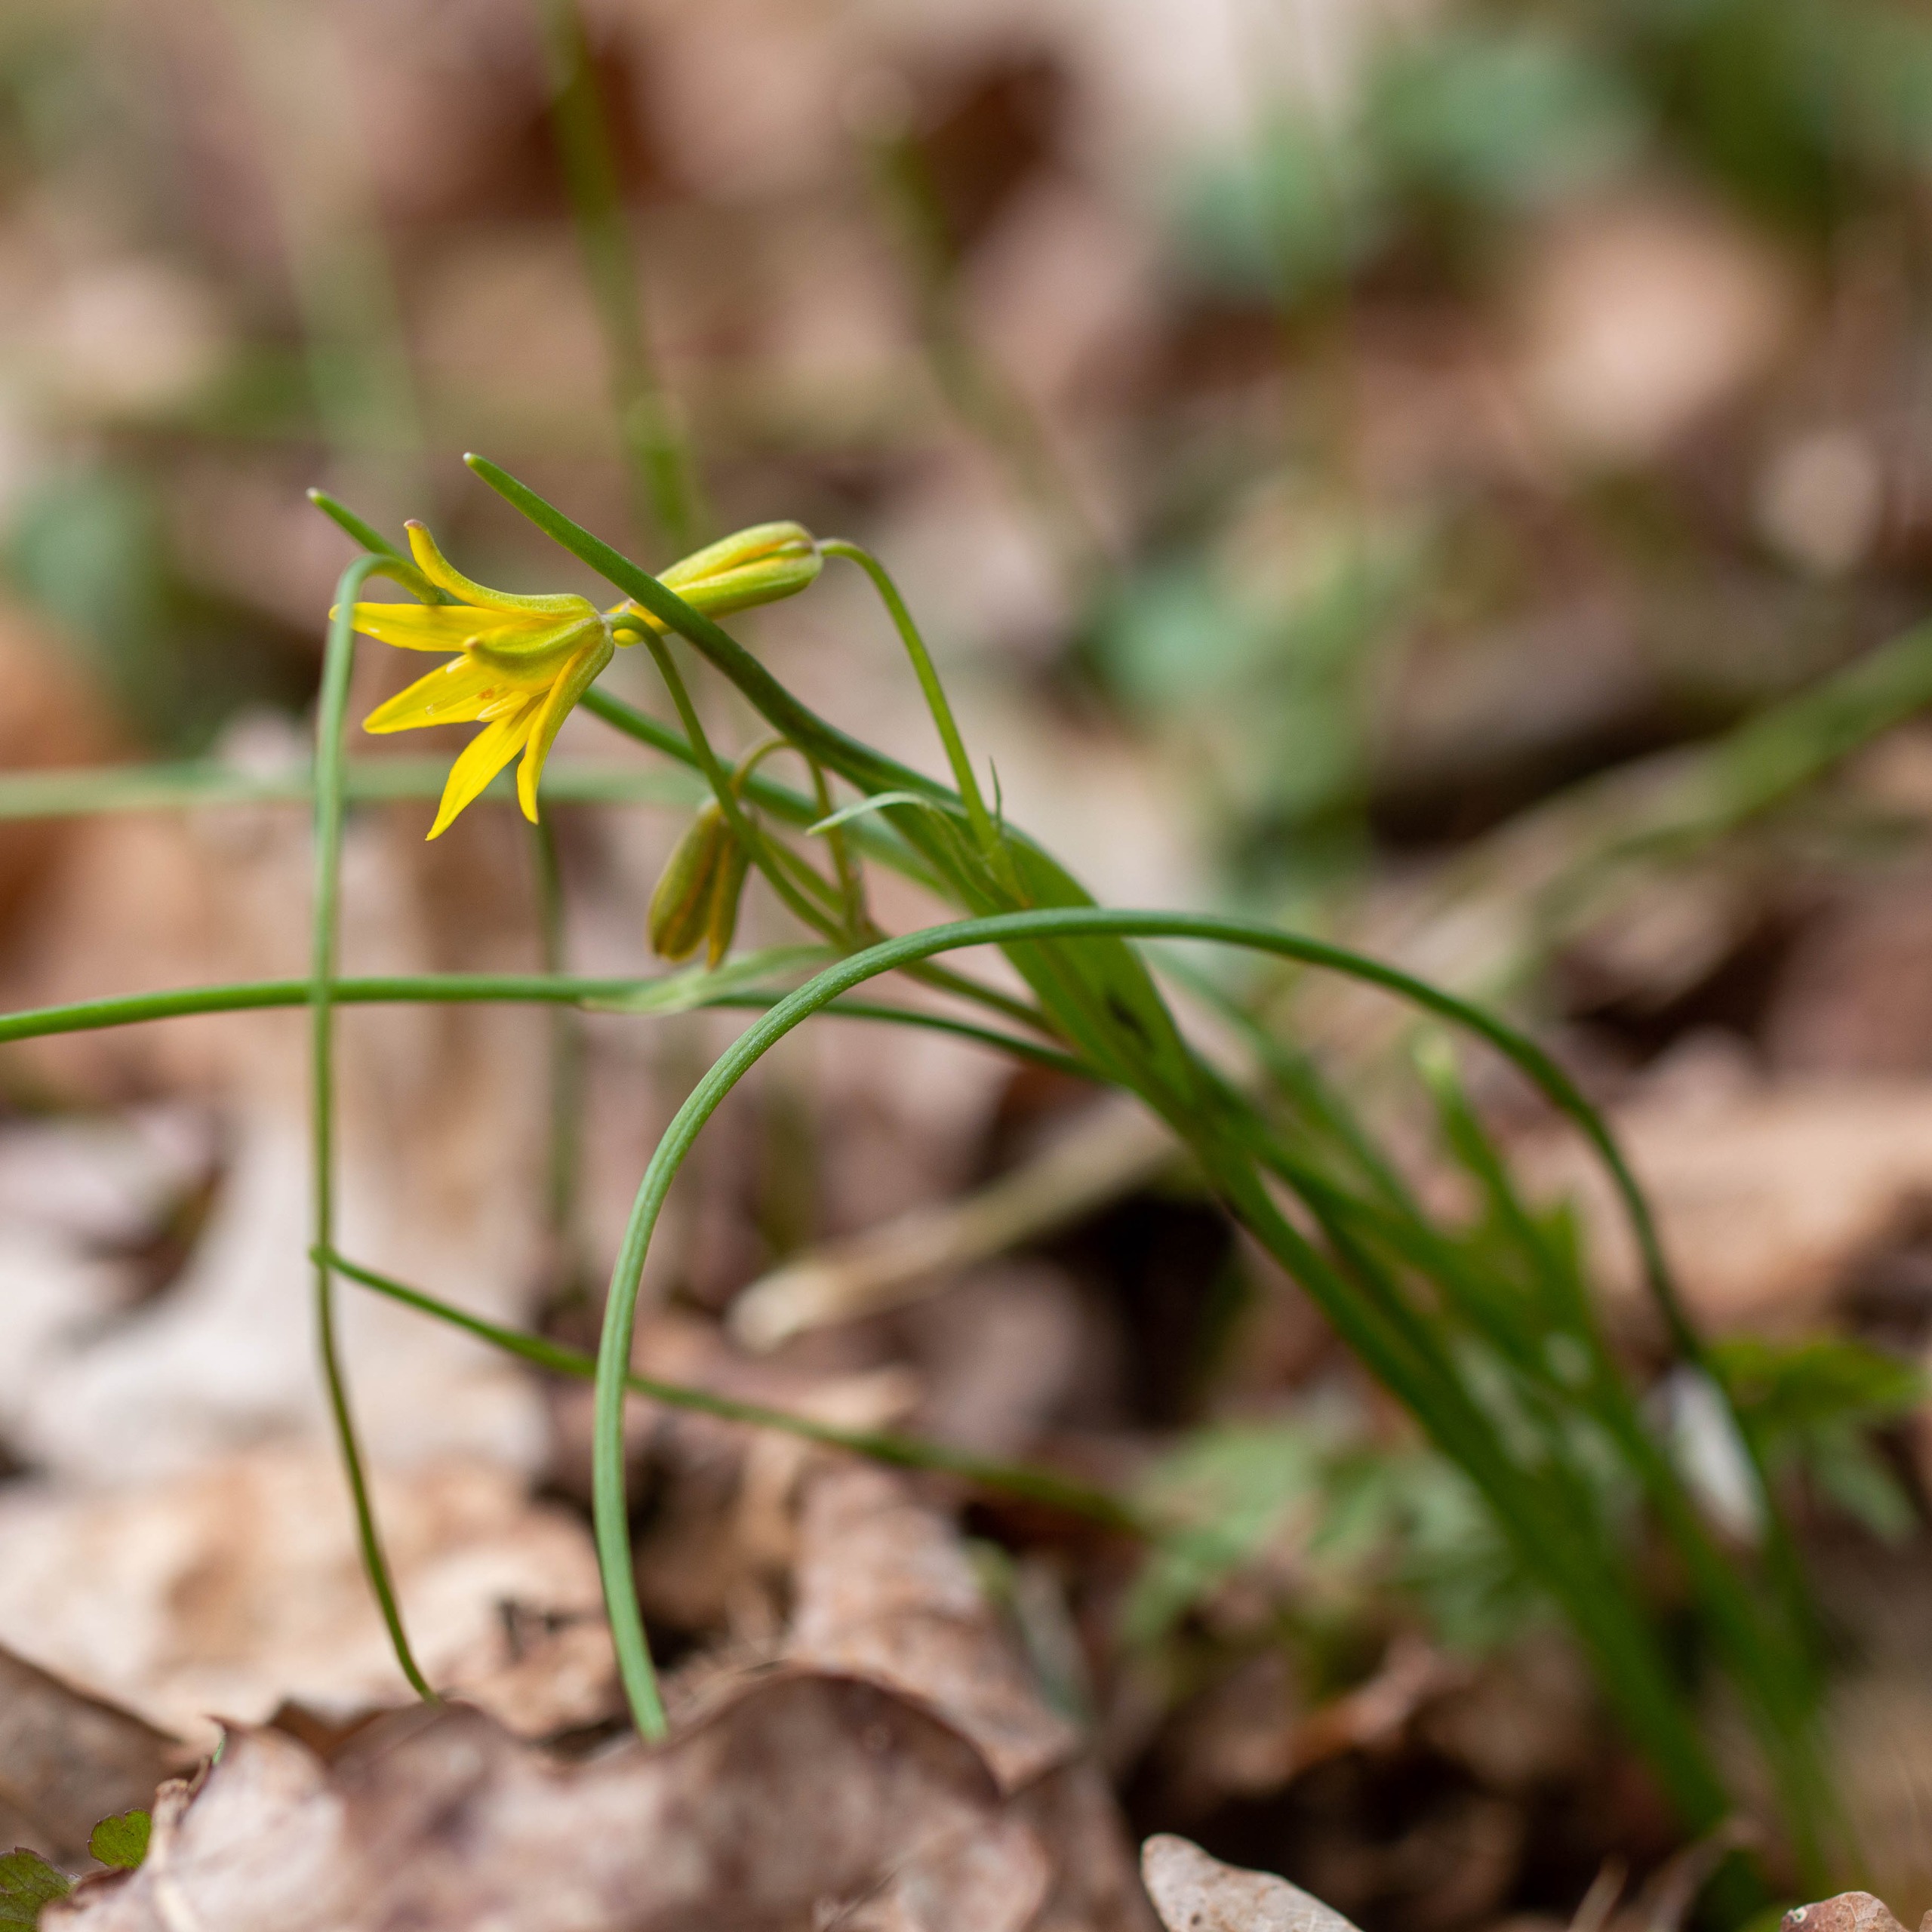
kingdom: Plantae
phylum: Tracheophyta
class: Liliopsida
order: Liliales
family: Liliaceae
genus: Gagea
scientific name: Gagea spathacea
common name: Hylster-guldstjerne
